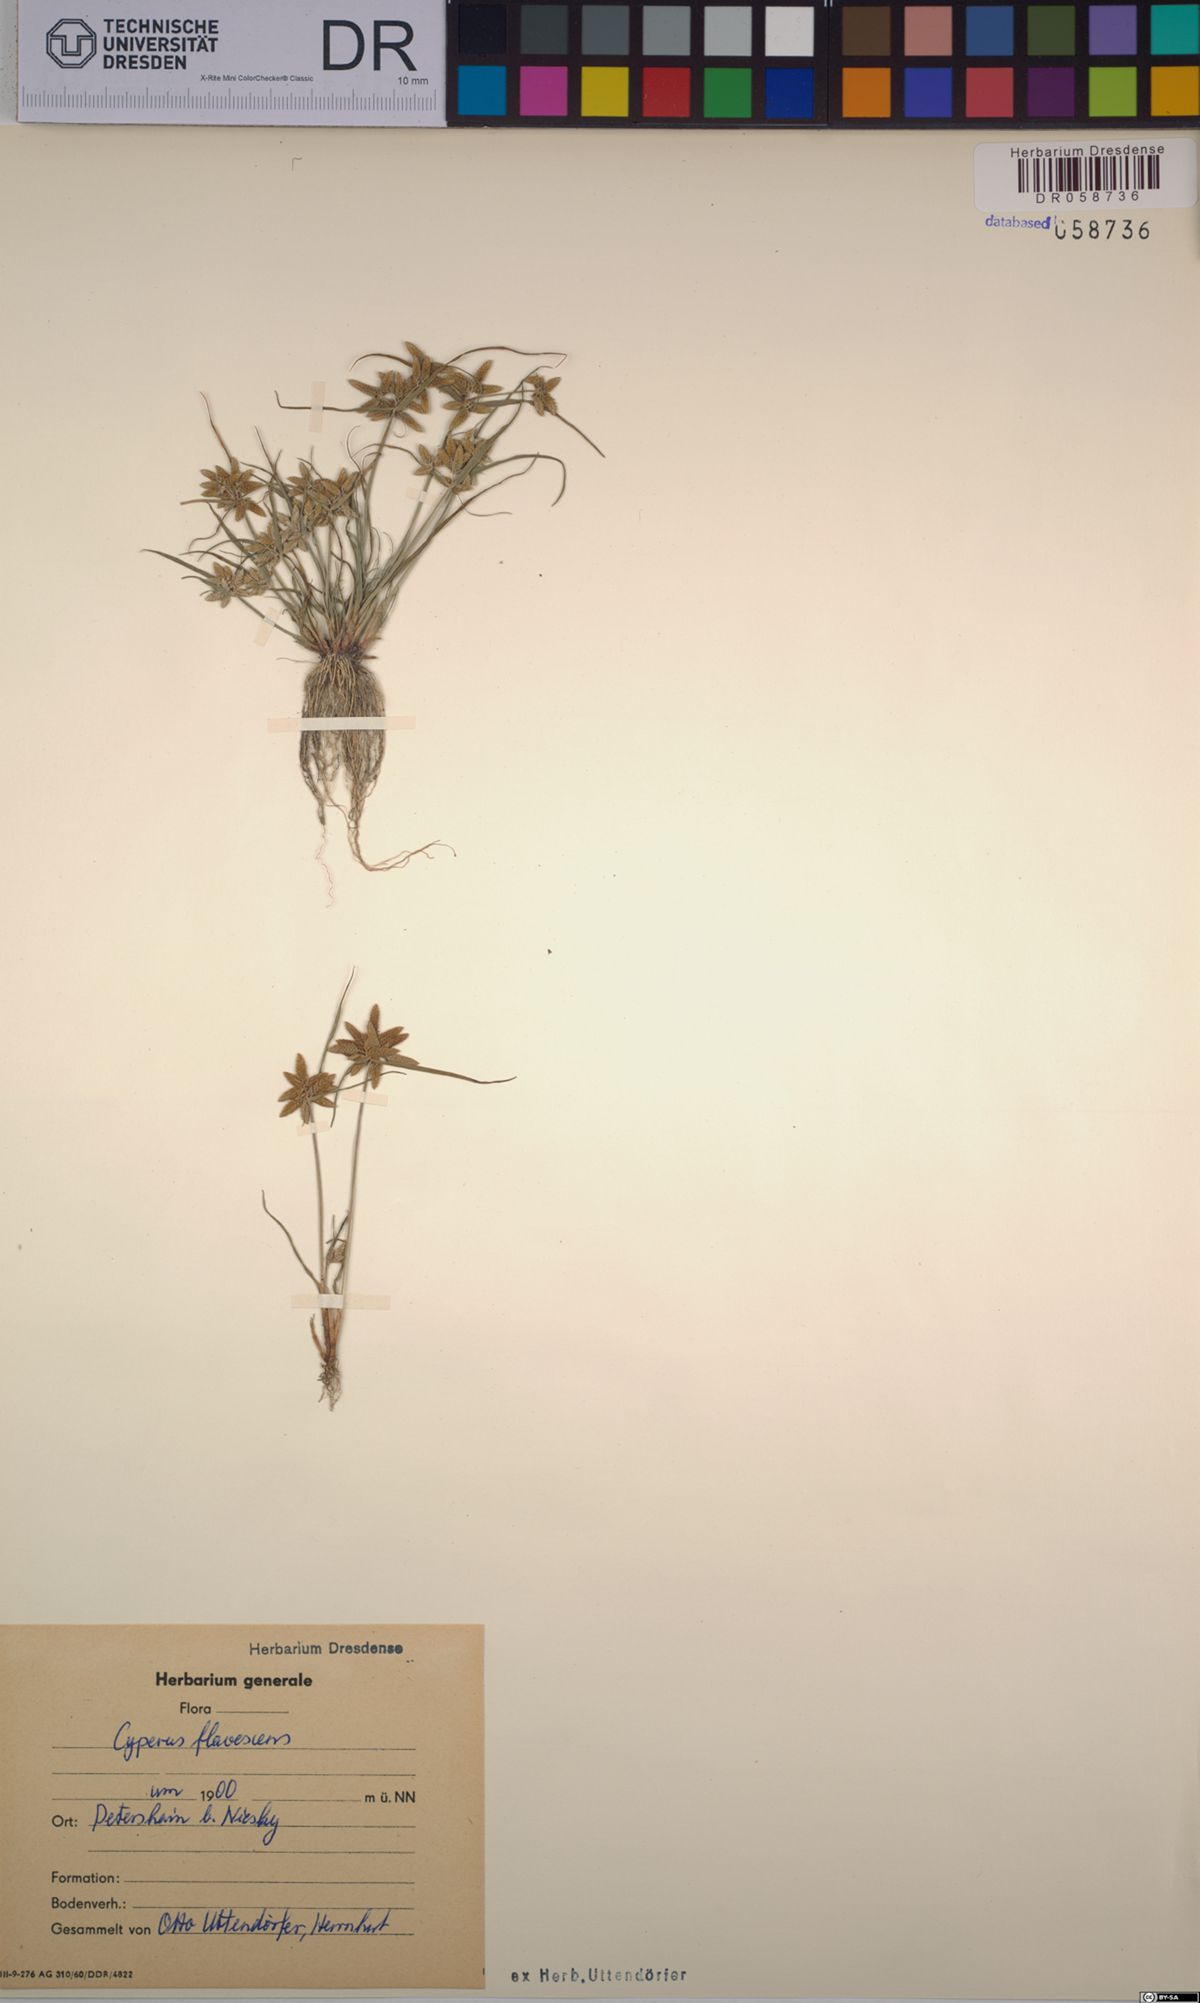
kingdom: Plantae
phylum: Tracheophyta
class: Liliopsida
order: Poales
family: Cyperaceae
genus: Cyperus
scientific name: Cyperus flavescens
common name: Yellow galingale
